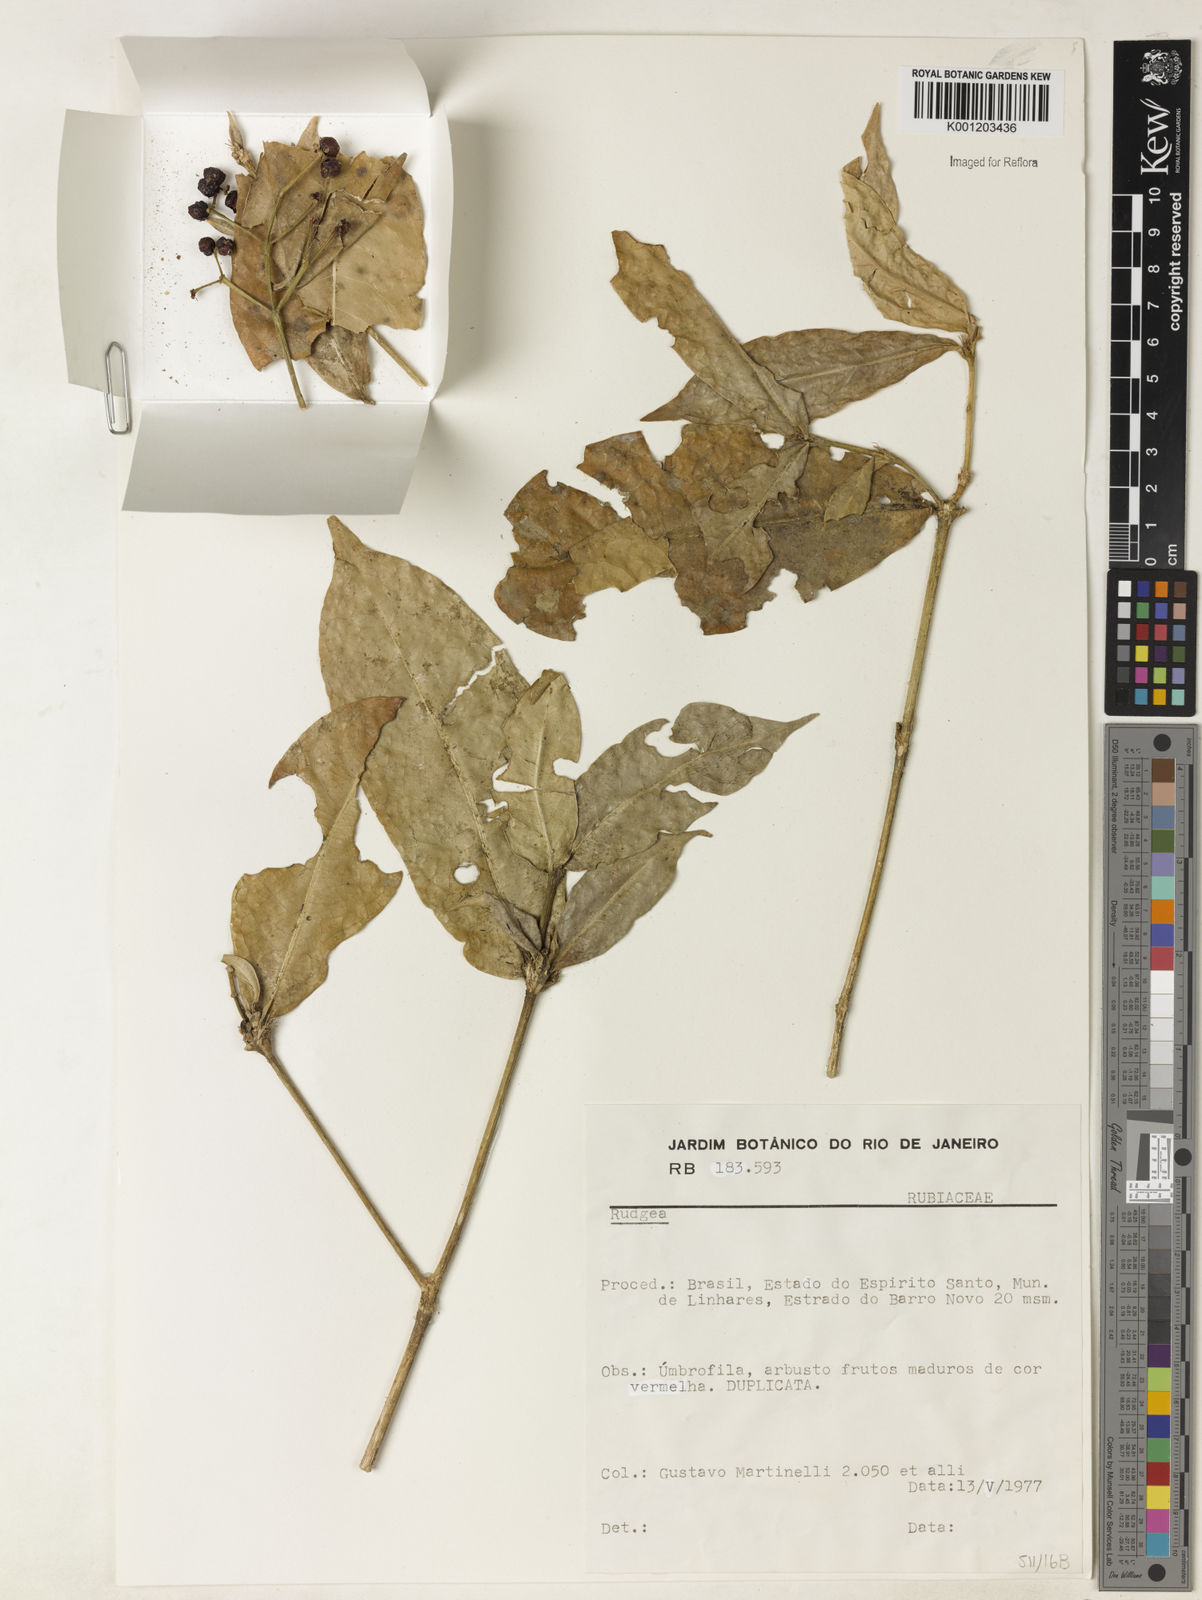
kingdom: Plantae
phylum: Tracheophyta
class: Magnoliopsida
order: Gentianales
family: Rubiaceae
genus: Rudgea
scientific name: Rudgea
